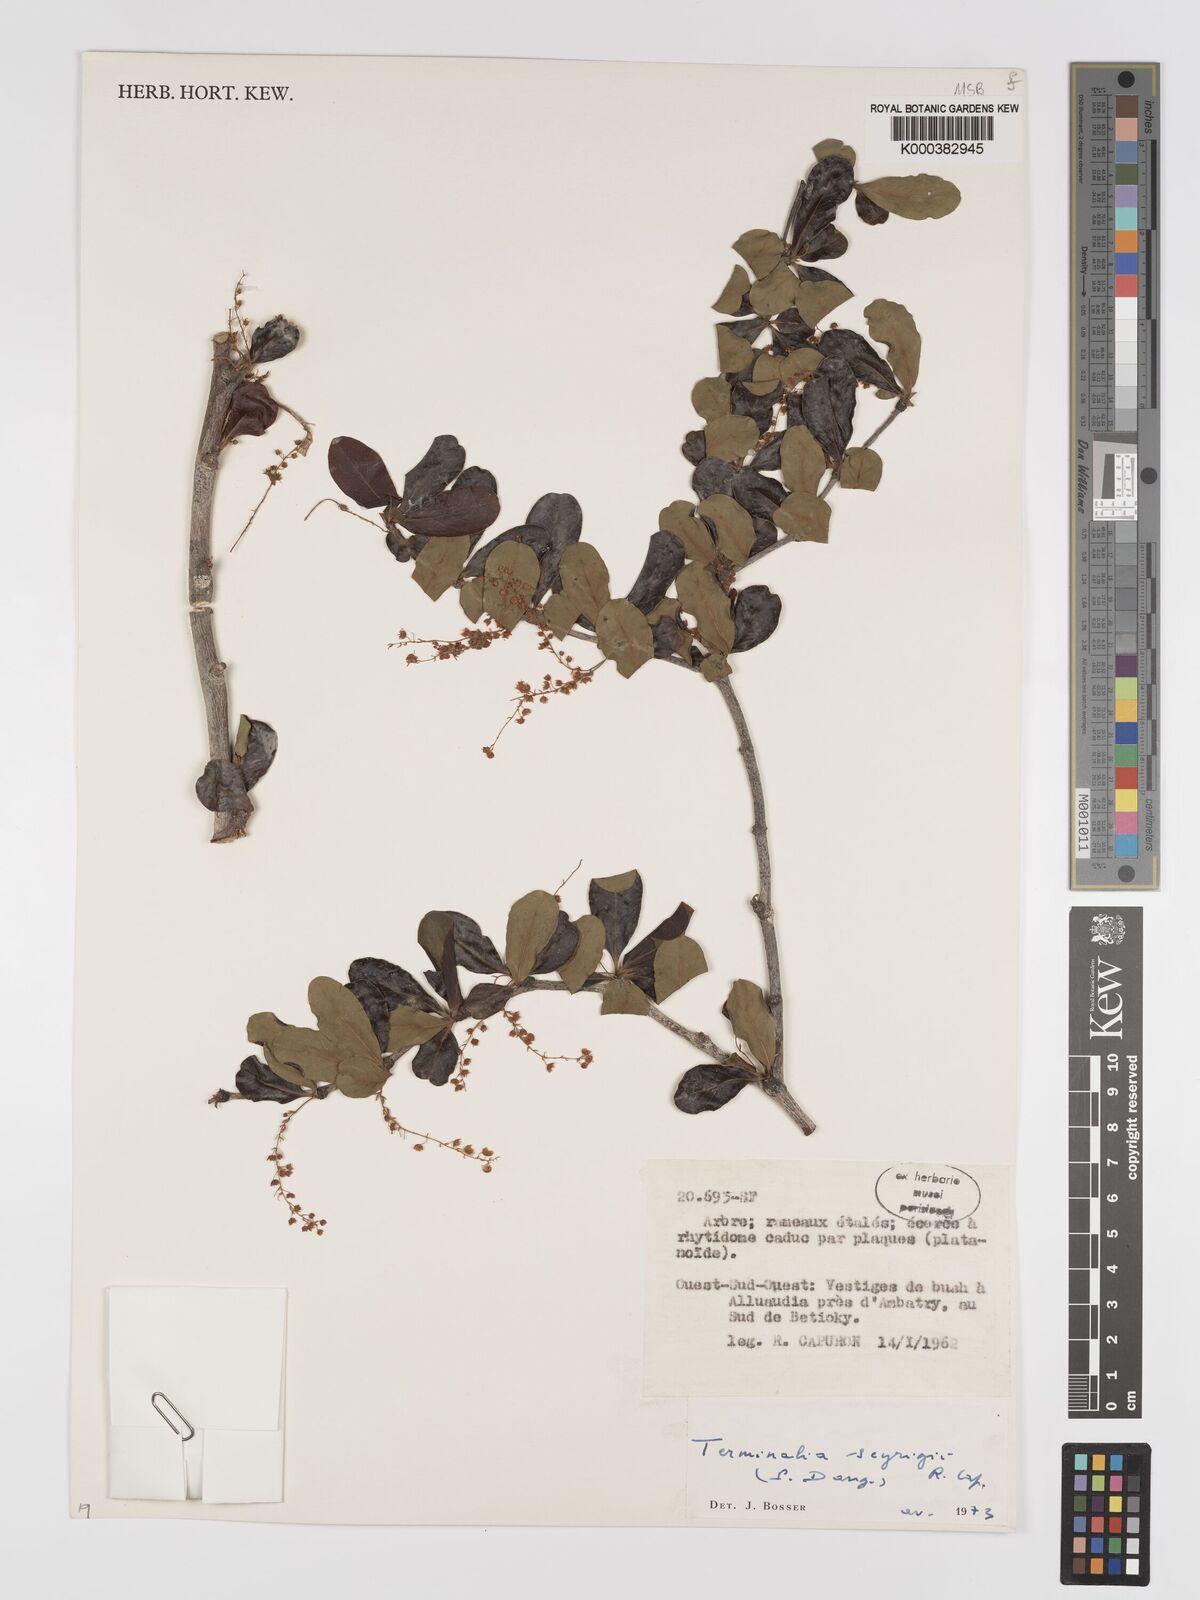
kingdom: Plantae
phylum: Tracheophyta
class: Magnoliopsida
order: Myrtales
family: Combretaceae
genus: Terminalia
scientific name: Terminalia seyrigii
